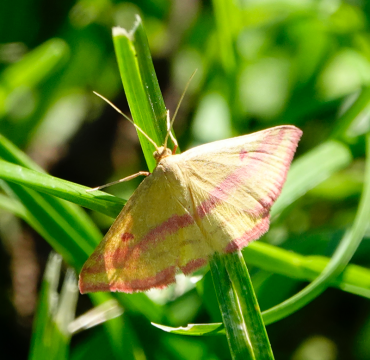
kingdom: Animalia
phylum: Arthropoda
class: Insecta
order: Lepidoptera
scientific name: Lepidoptera
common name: Butterflies
